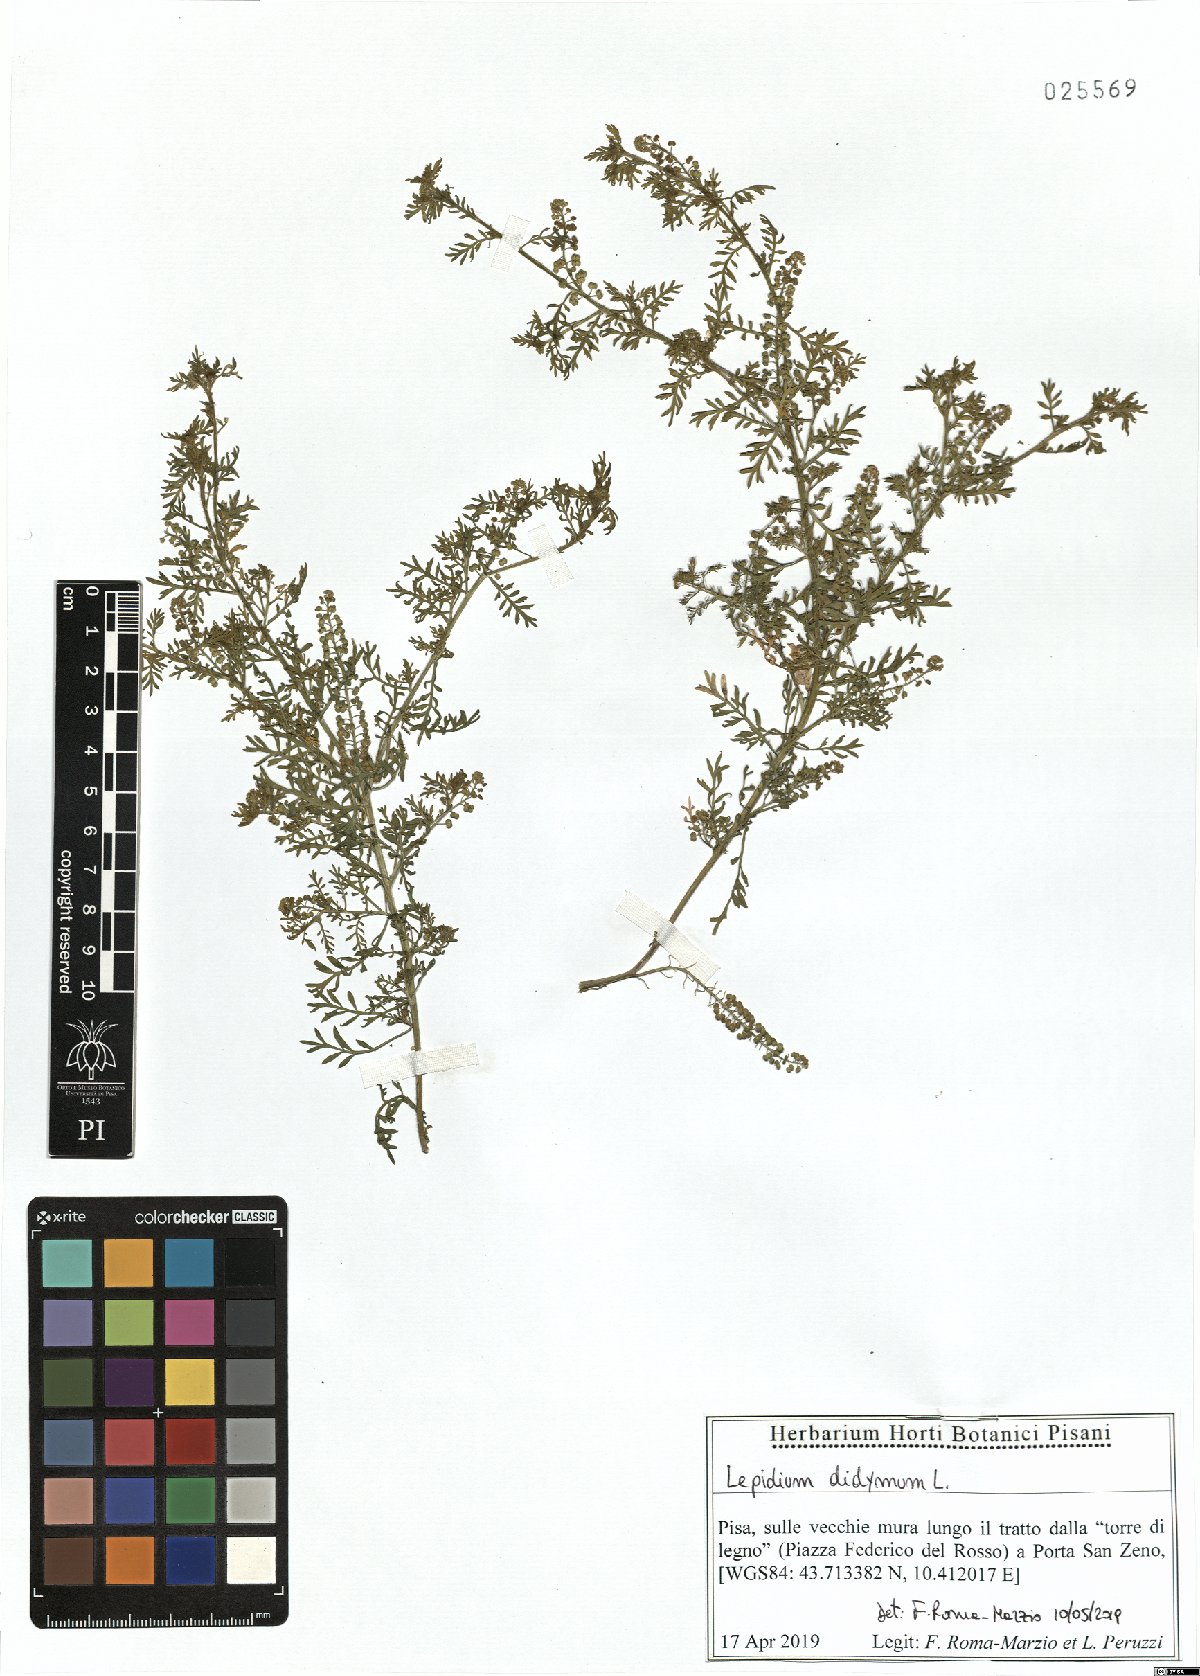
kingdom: Plantae
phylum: Tracheophyta
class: Magnoliopsida
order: Brassicales
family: Brassicaceae
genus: Lepidium
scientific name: Lepidium didymum
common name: Lesser swinecress
